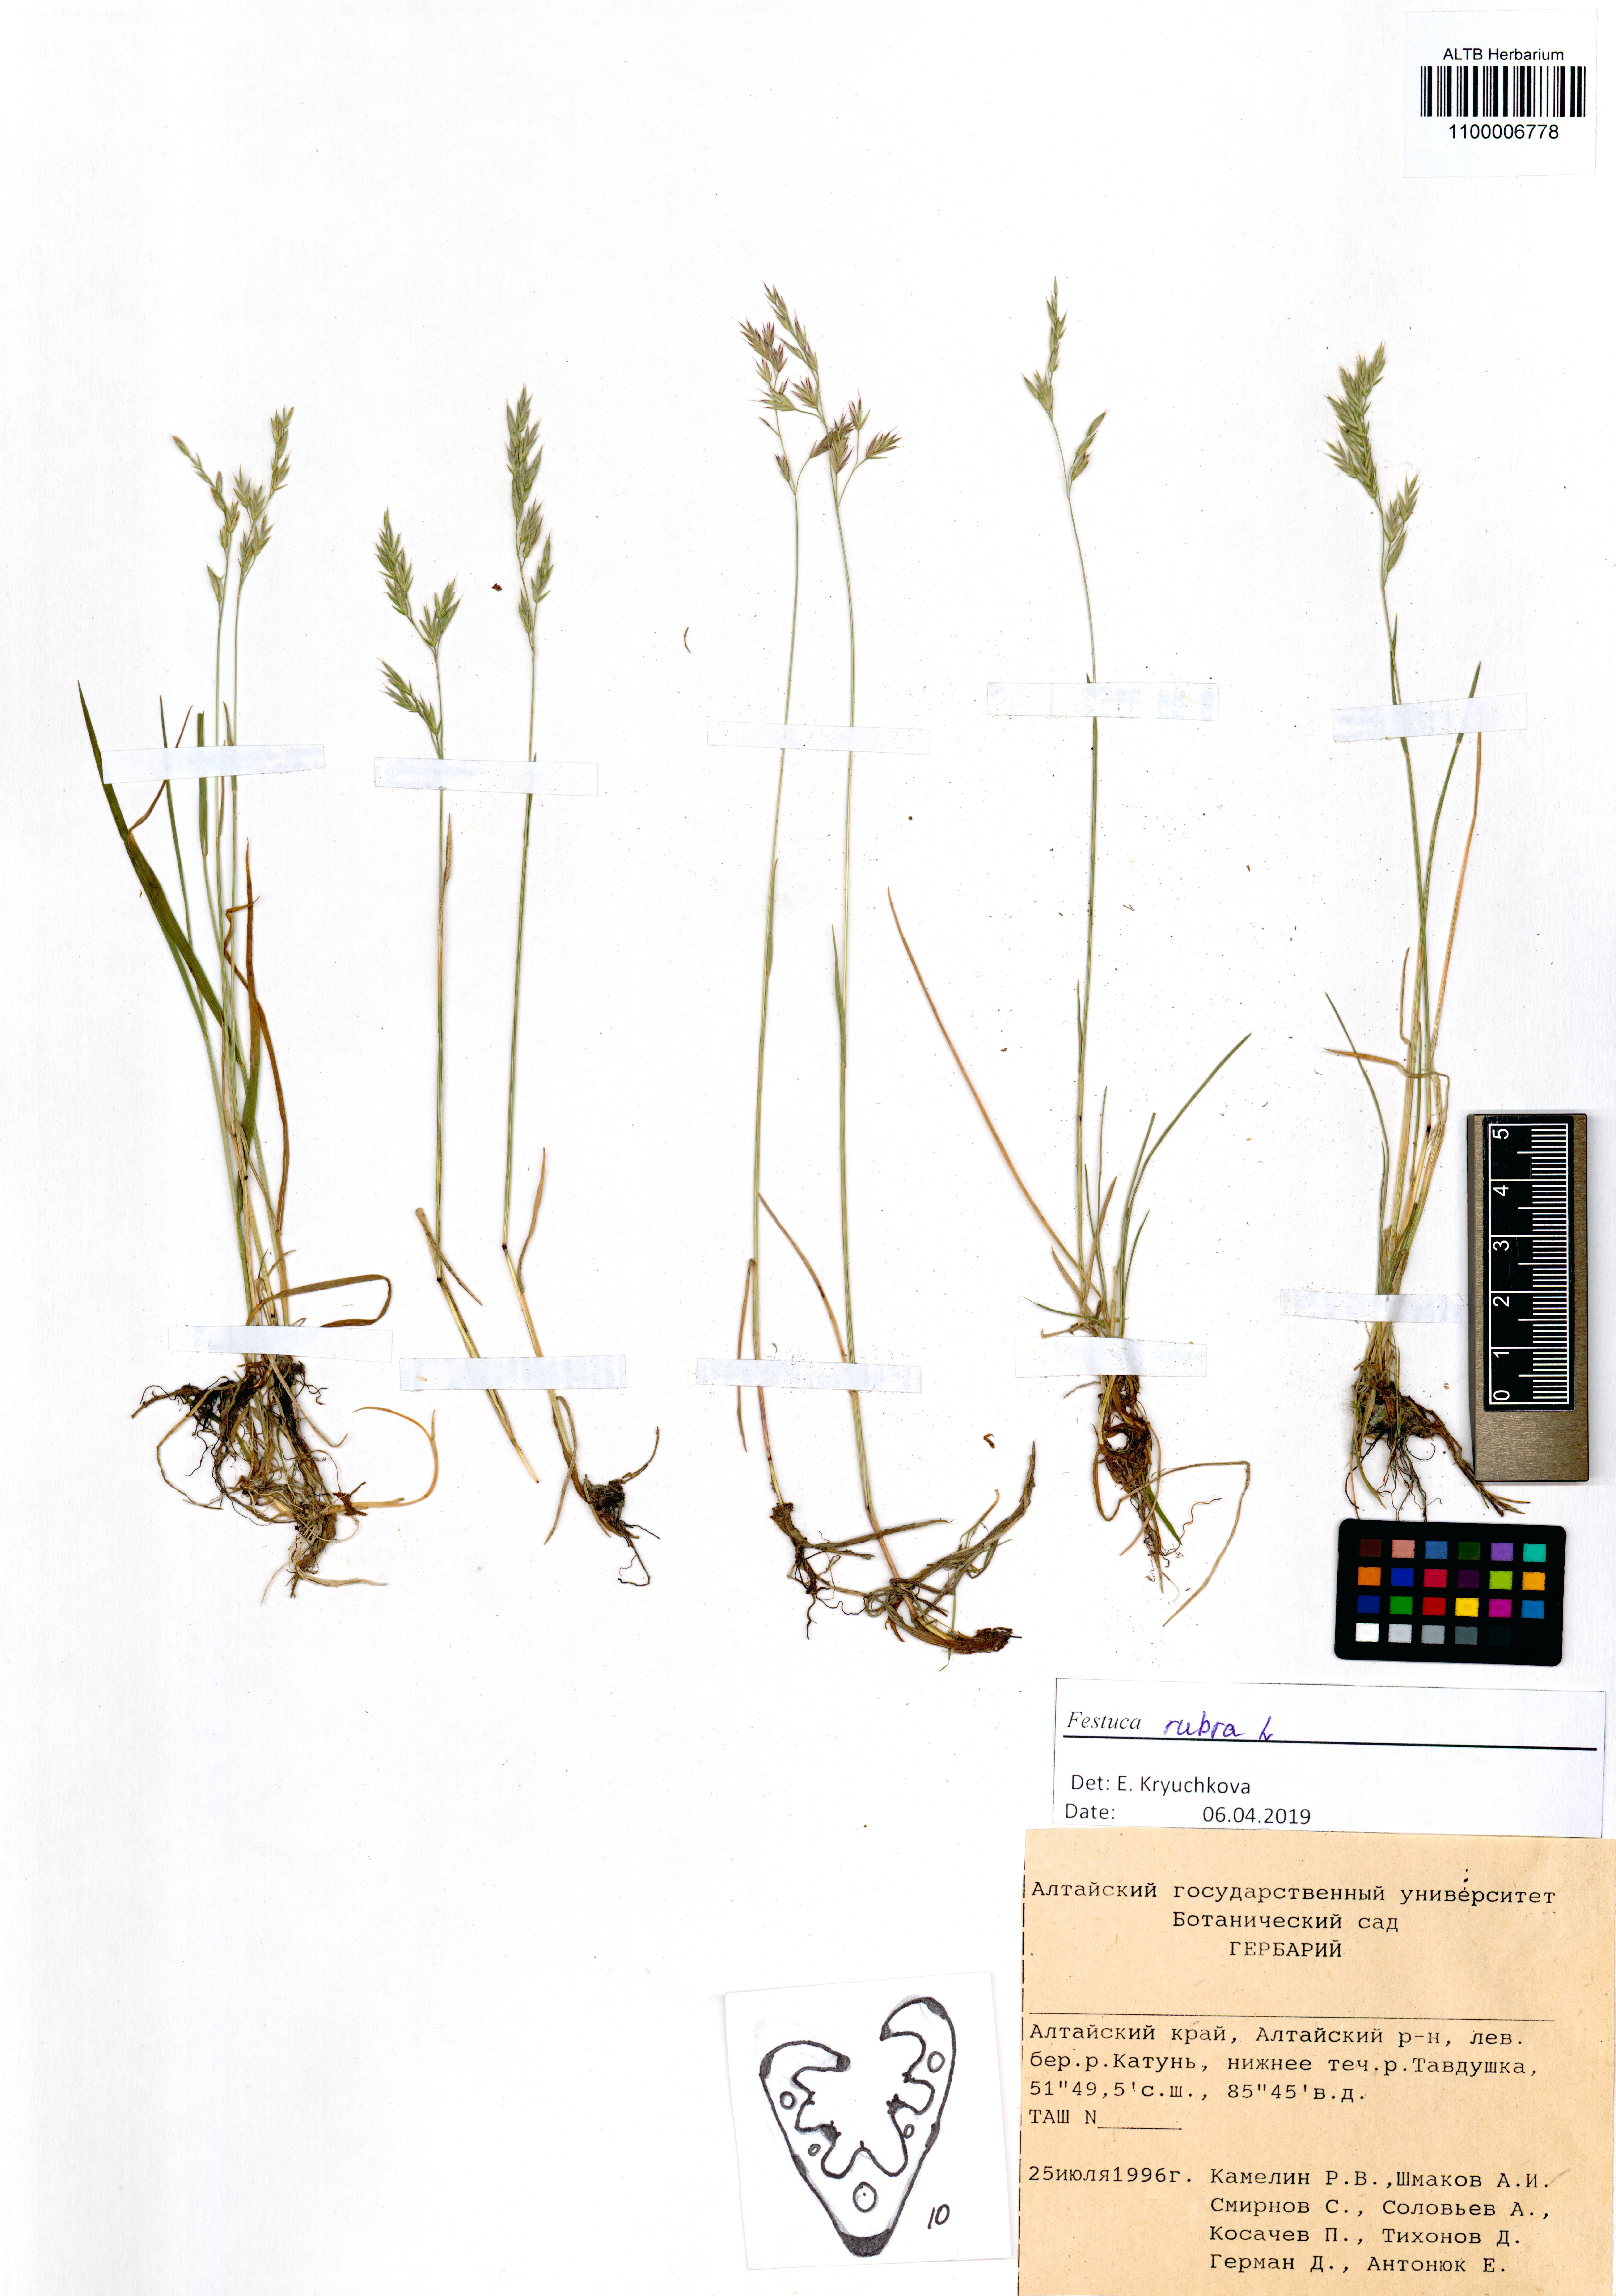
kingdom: Plantae
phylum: Tracheophyta
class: Liliopsida
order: Poales
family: Poaceae
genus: Festuca
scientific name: Festuca rubra
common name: Red fescue
